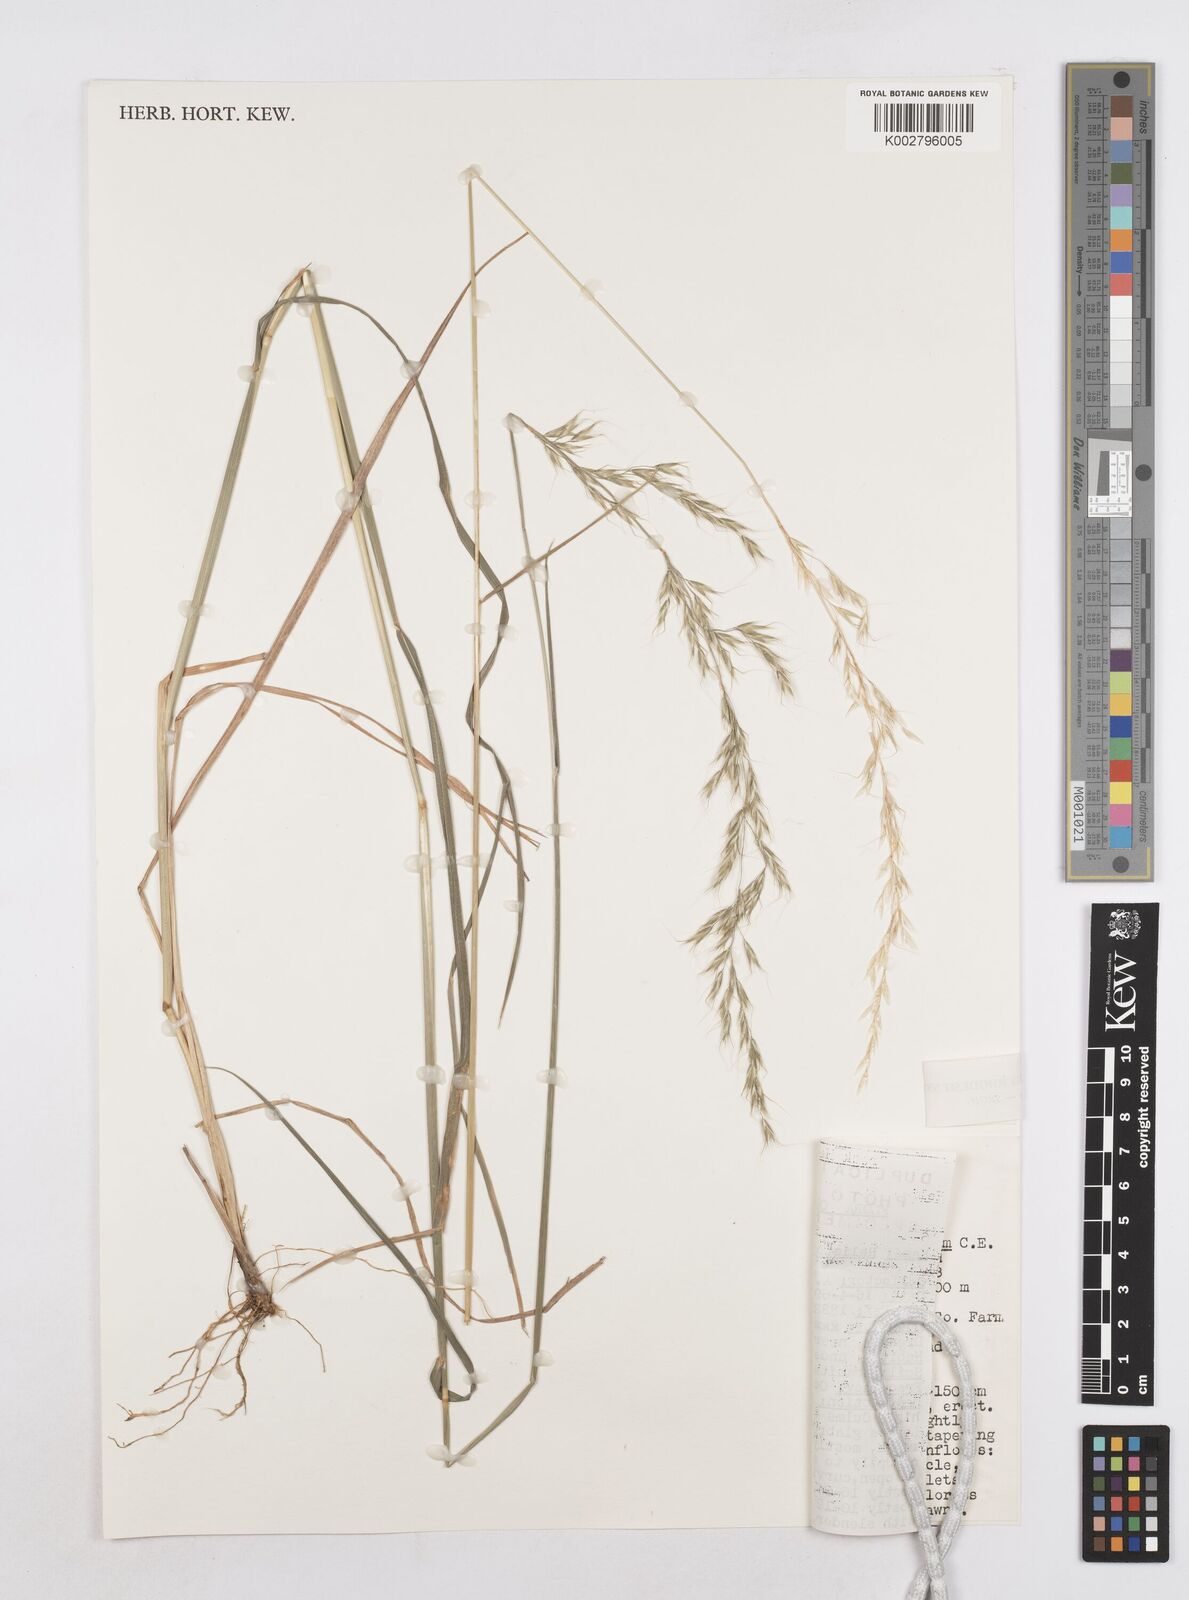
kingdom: Plantae
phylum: Tracheophyta
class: Liliopsida
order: Poales
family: Poaceae
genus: Trisetopsis
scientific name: Trisetopsis elongata
